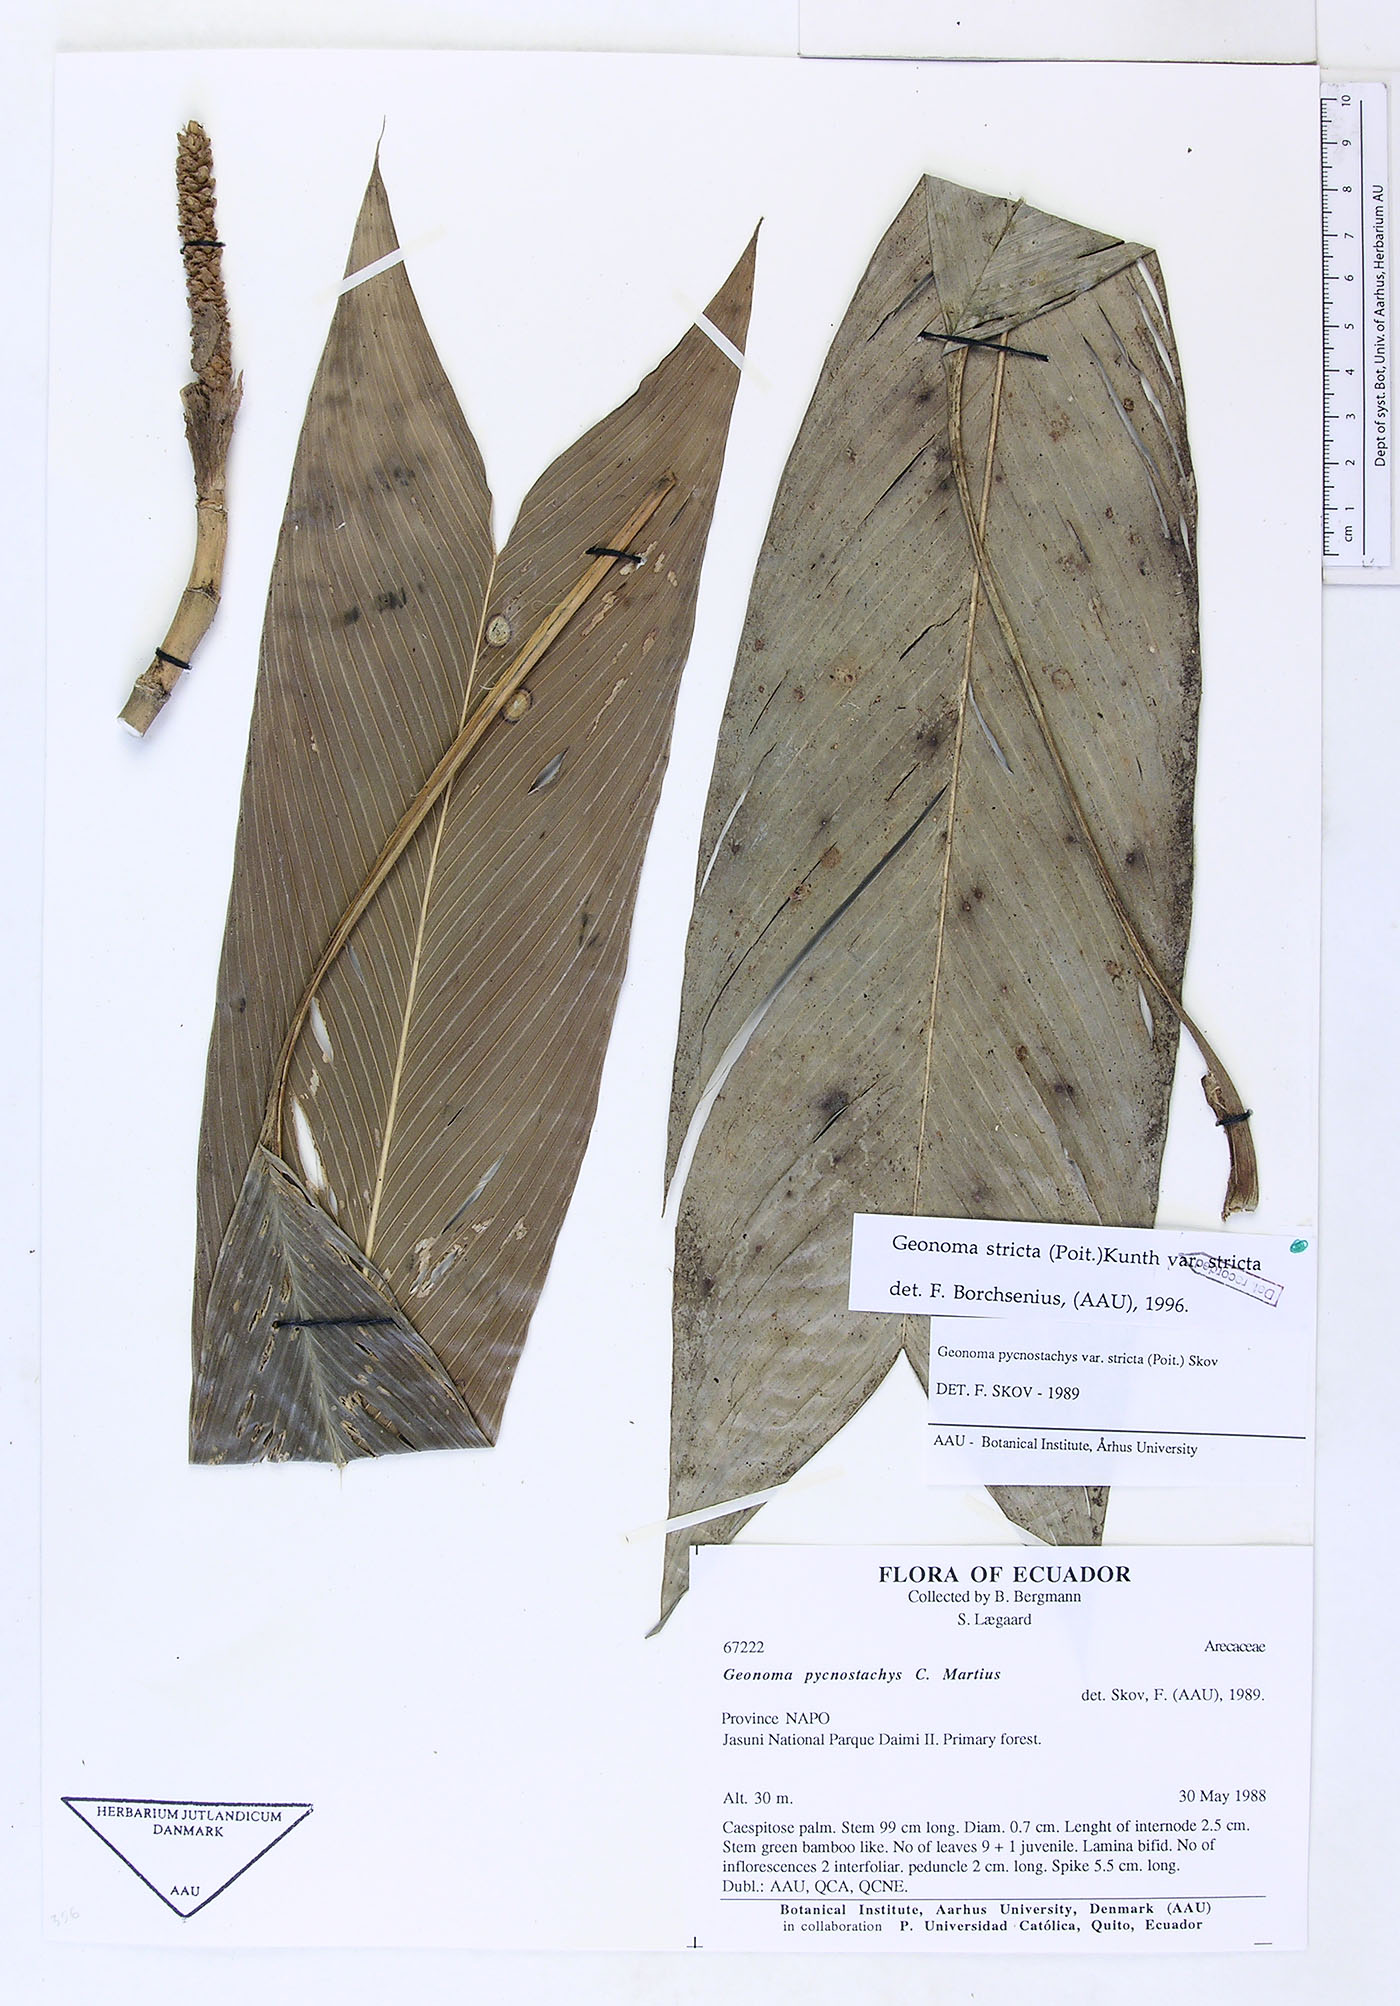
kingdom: Plantae
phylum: Tracheophyta
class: Liliopsida
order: Arecales
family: Arecaceae
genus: Geonoma
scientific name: Geonoma stricta
